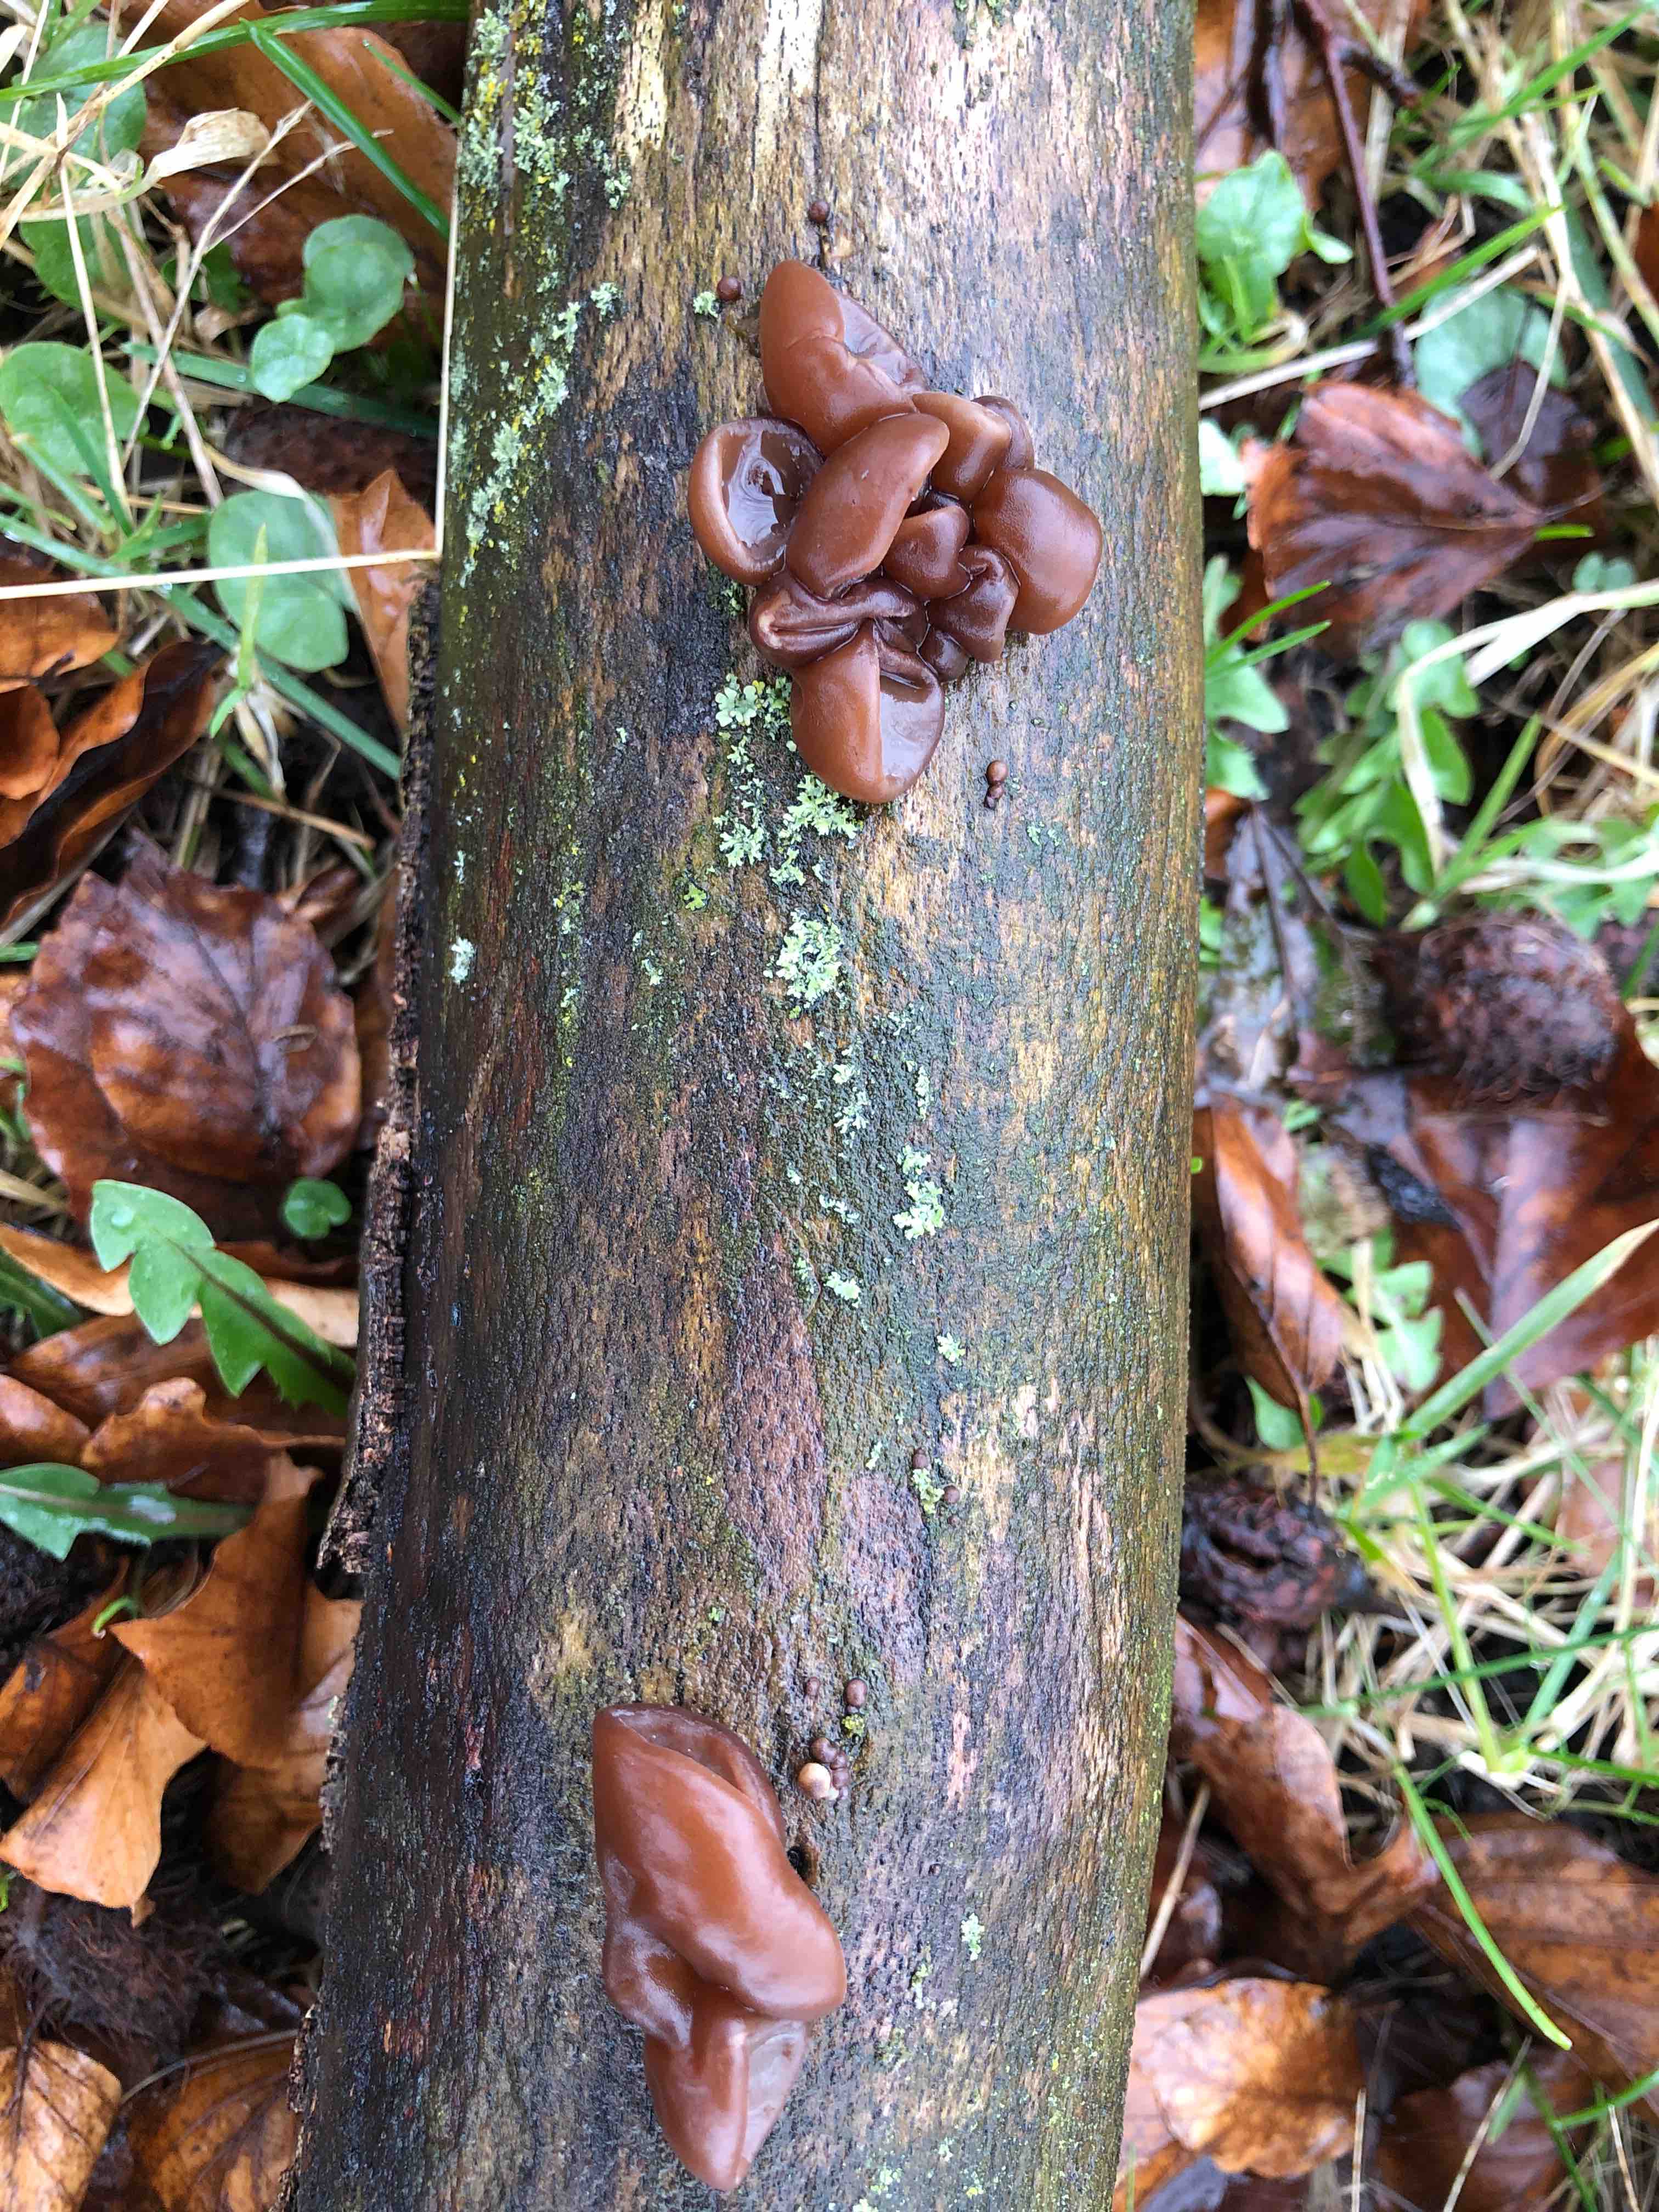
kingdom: Fungi
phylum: Basidiomycota
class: Agaricomycetes
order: Auriculariales
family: Auriculariaceae
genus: Auricularia
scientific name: Auricularia auricula-judae
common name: almindelig judasøre
